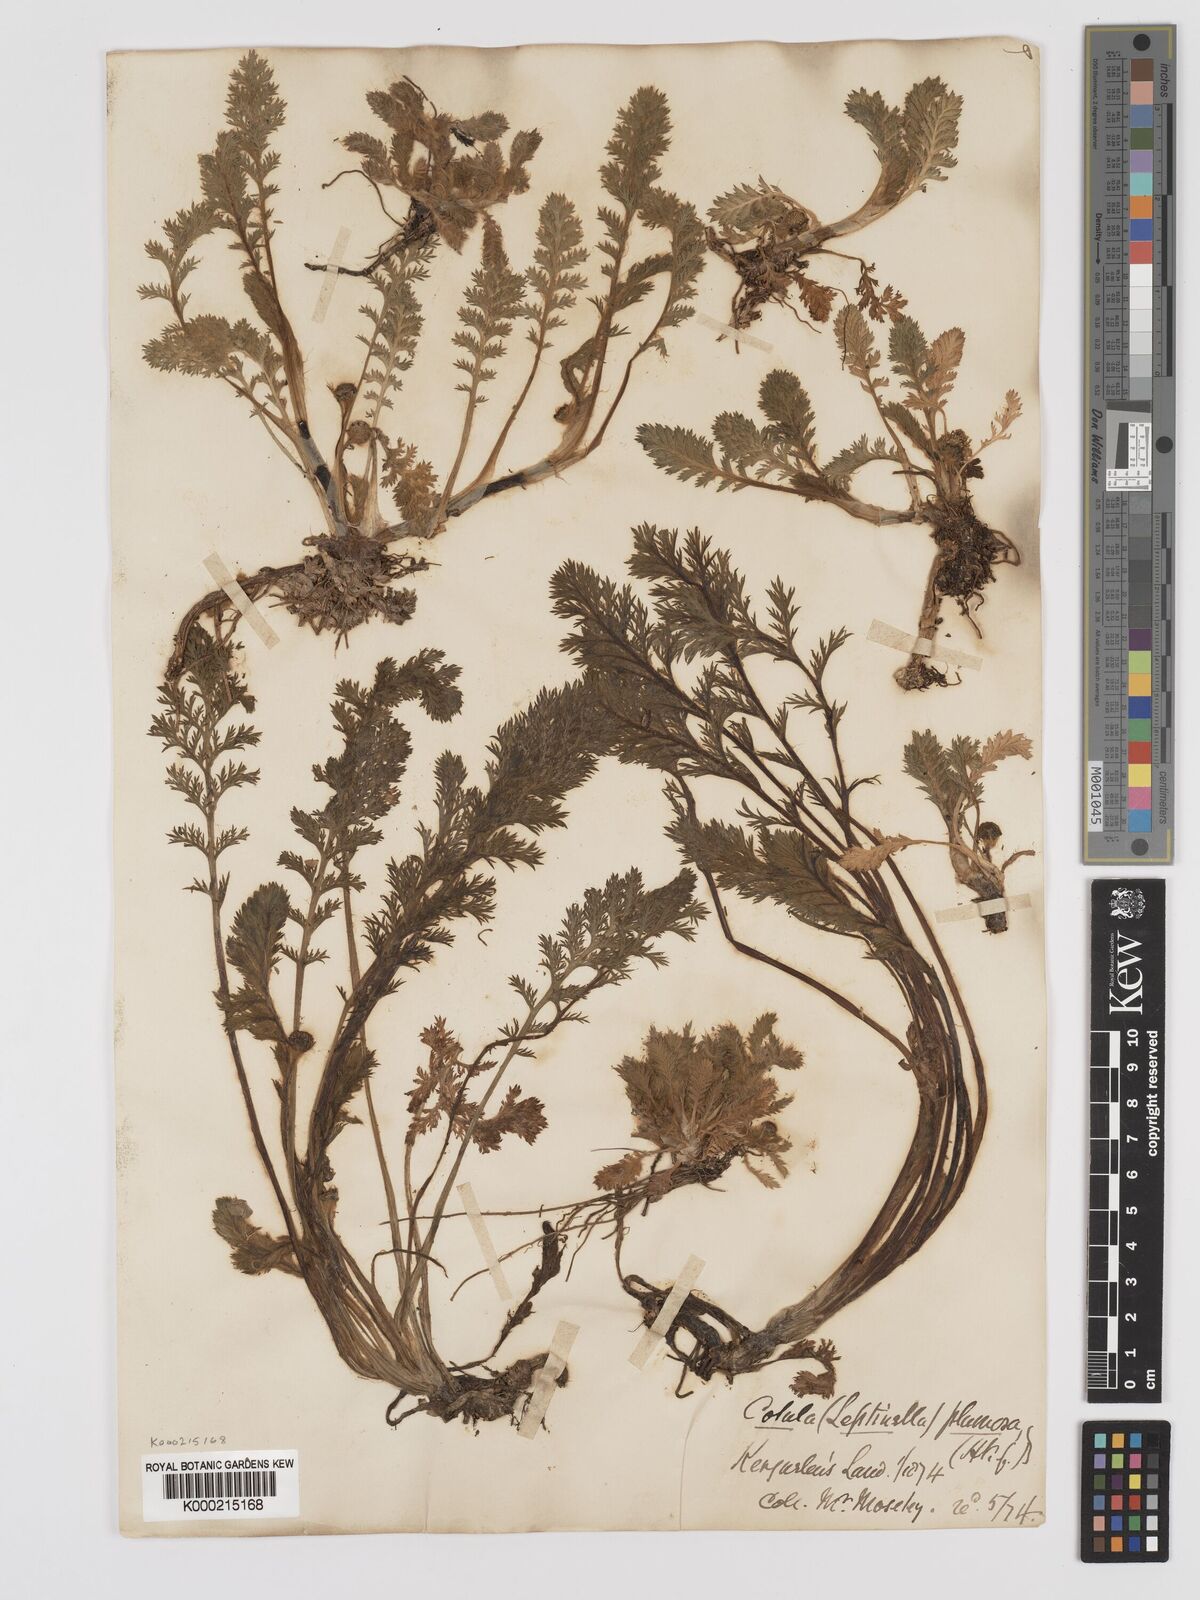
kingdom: Plantae
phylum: Tracheophyta
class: Magnoliopsida
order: Asterales
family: Asteraceae
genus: Leptinella
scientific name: Leptinella
